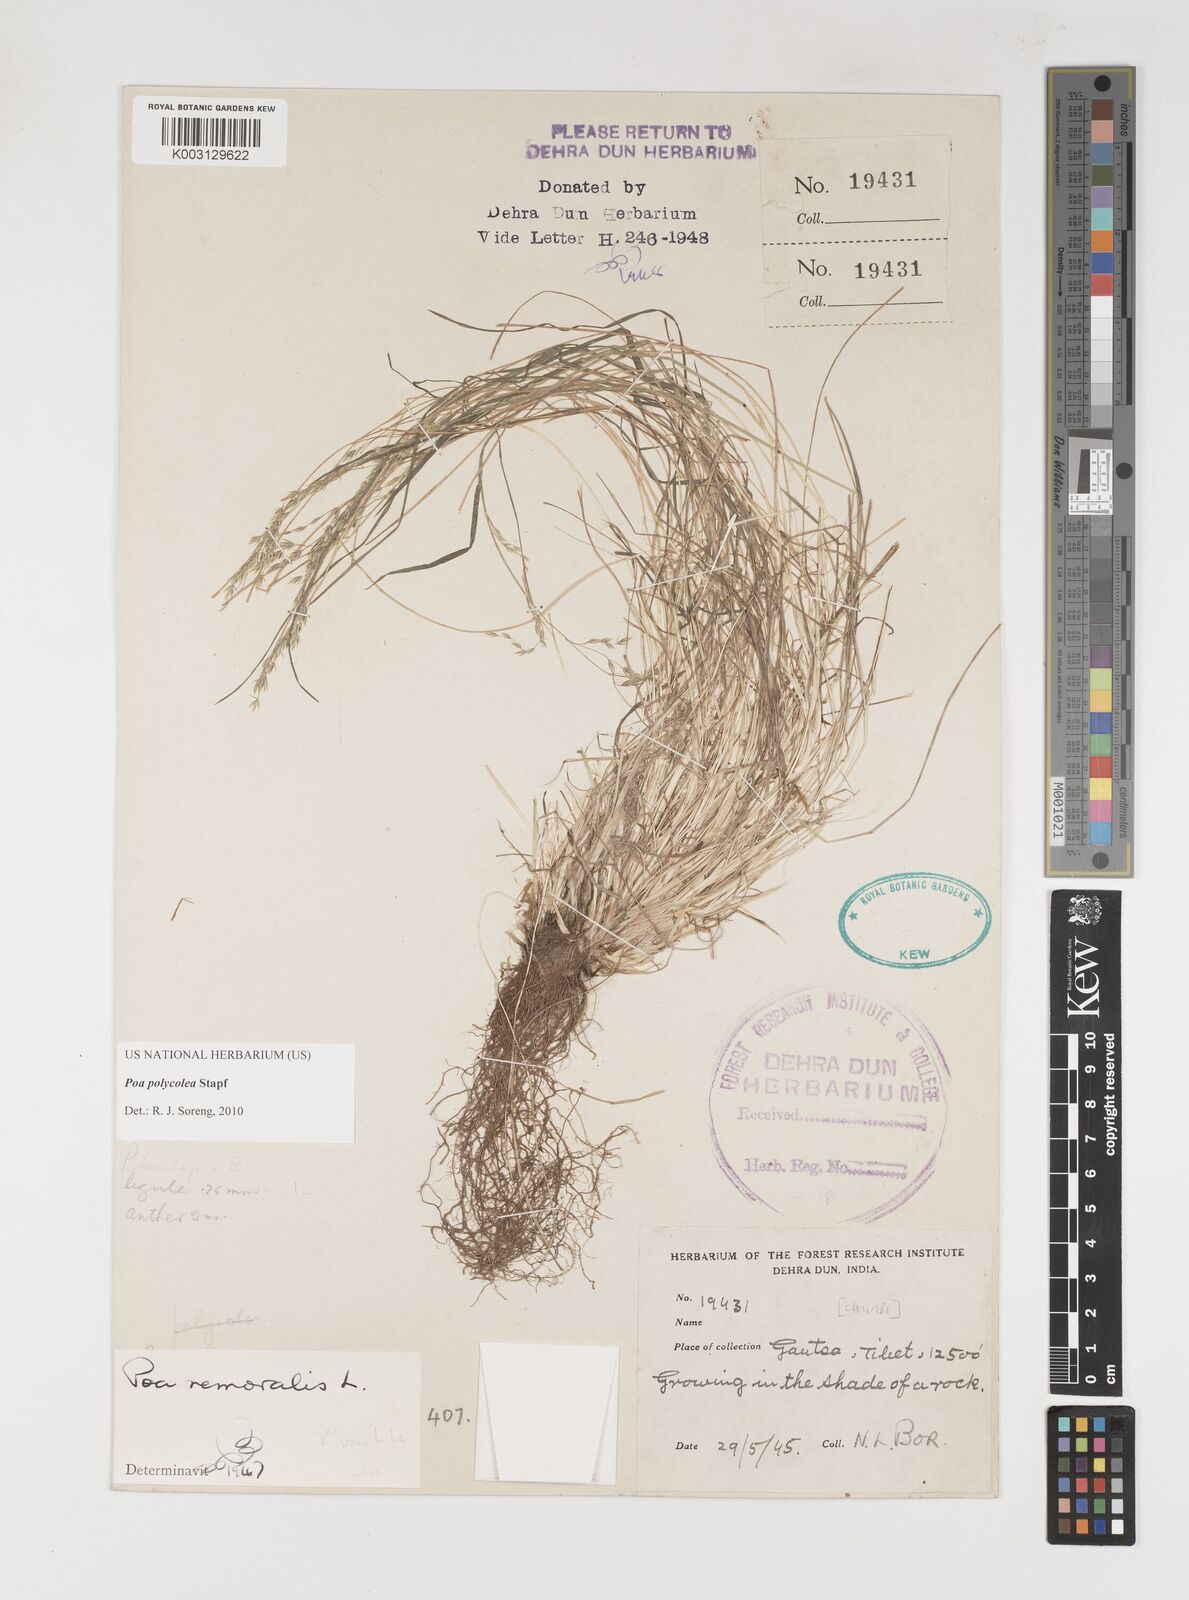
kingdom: Plantae
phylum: Tracheophyta
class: Liliopsida
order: Poales
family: Poaceae
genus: Poa
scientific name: Poa polycolea
